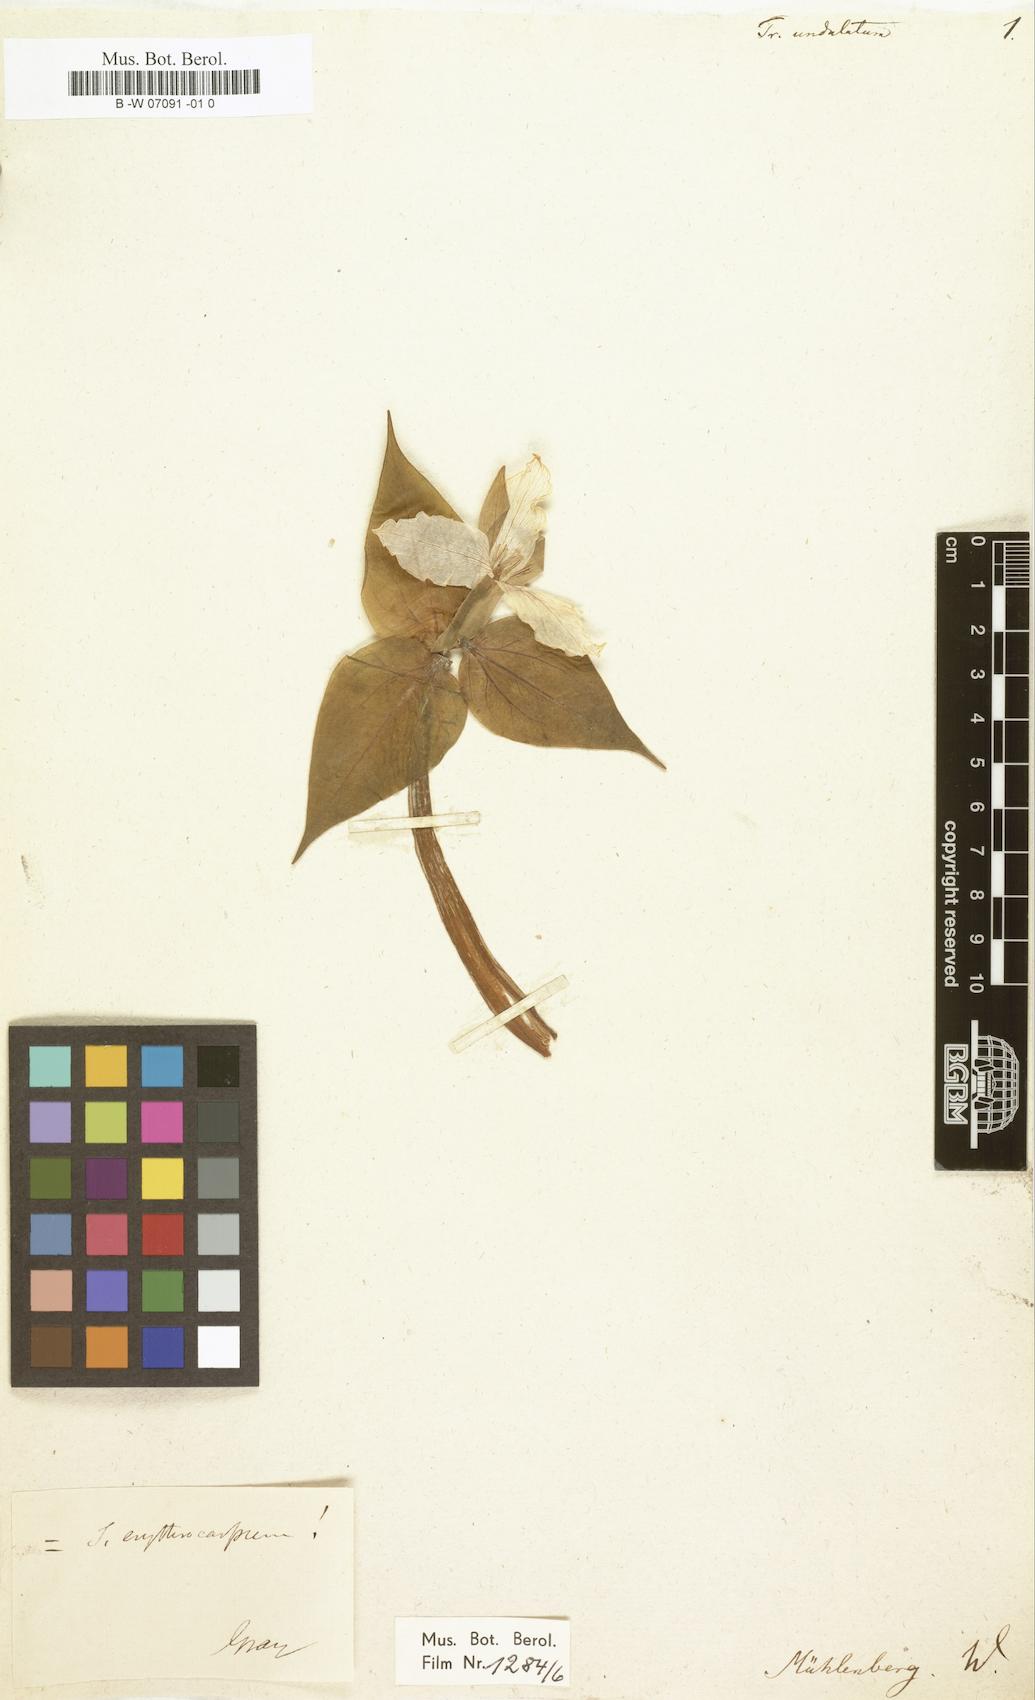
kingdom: Plantae
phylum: Tracheophyta
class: Liliopsida
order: Liliales
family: Melanthiaceae
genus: Trillium
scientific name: Trillium undulatum
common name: Paint trillium
